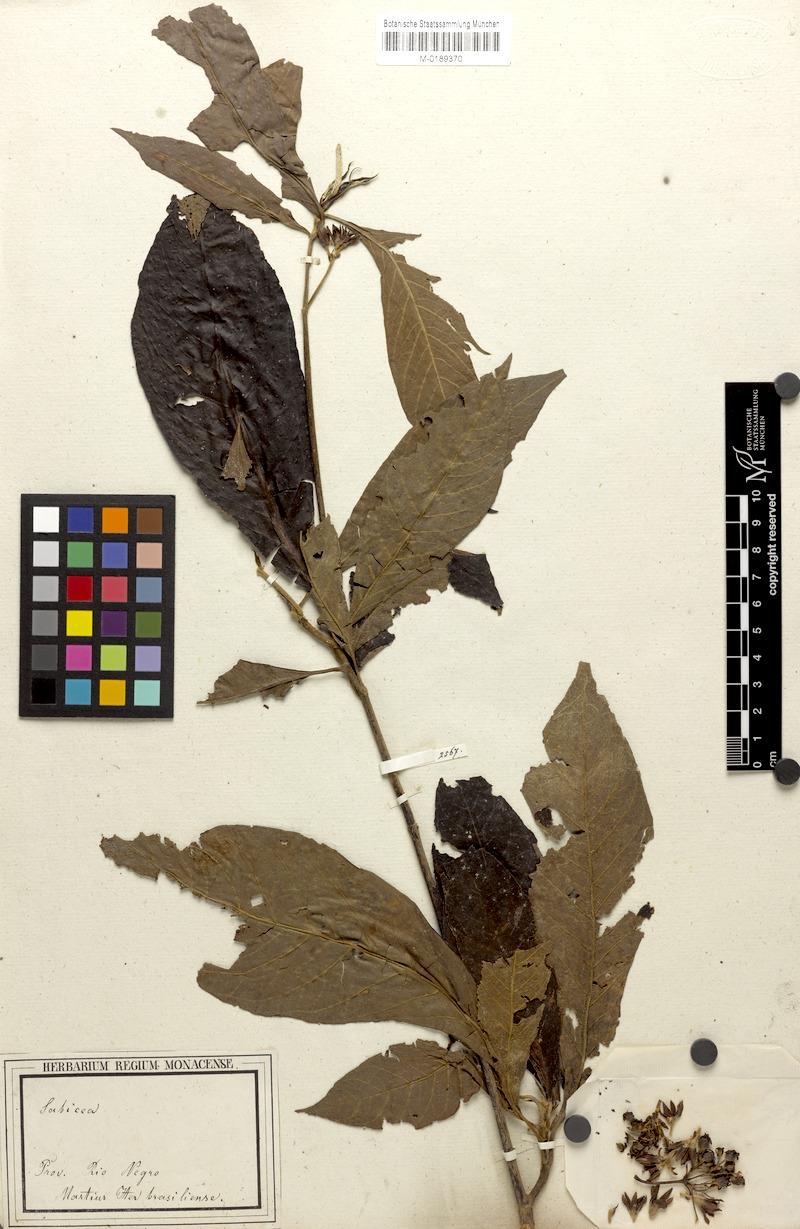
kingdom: Plantae
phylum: Tracheophyta
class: Magnoliopsida
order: Gentianales
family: Rubiaceae
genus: Sommera
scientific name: Sommera sabiceoides
